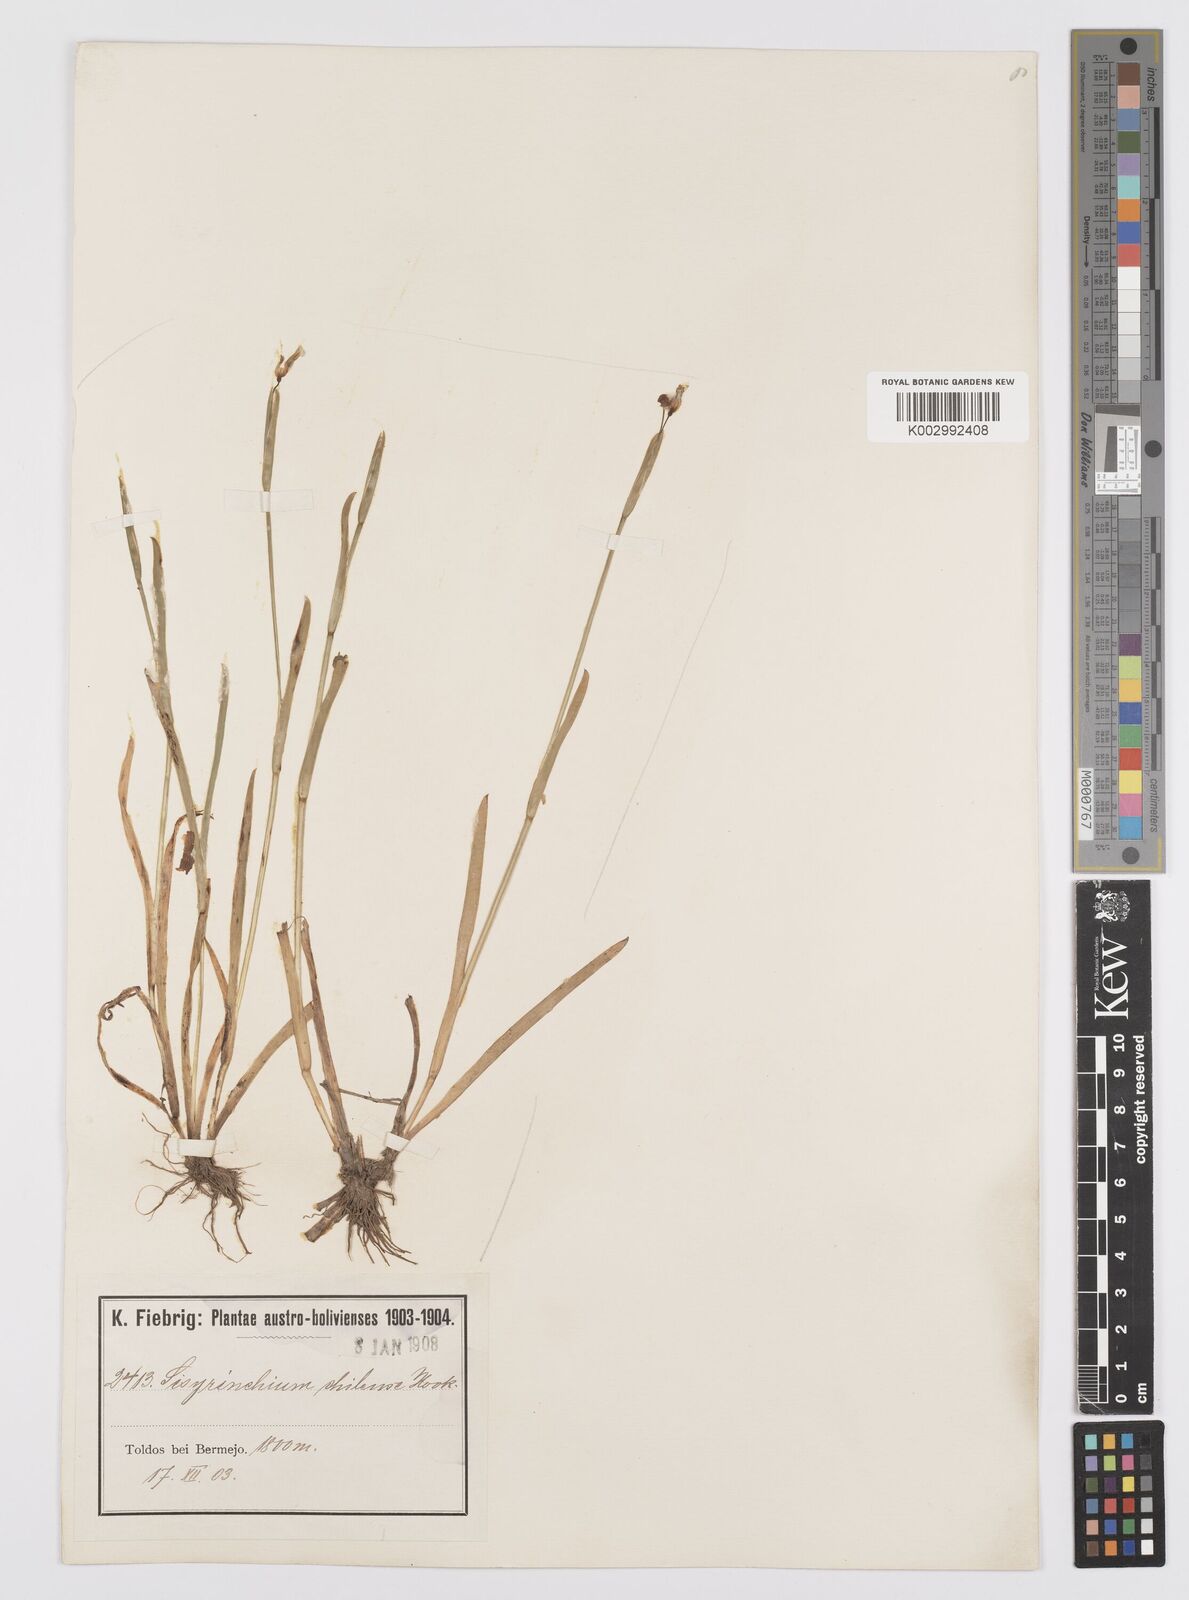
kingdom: Plantae
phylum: Tracheophyta
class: Liliopsida
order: Asparagales
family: Iridaceae
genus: Sisyrinchium
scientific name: Sisyrinchium chilense
